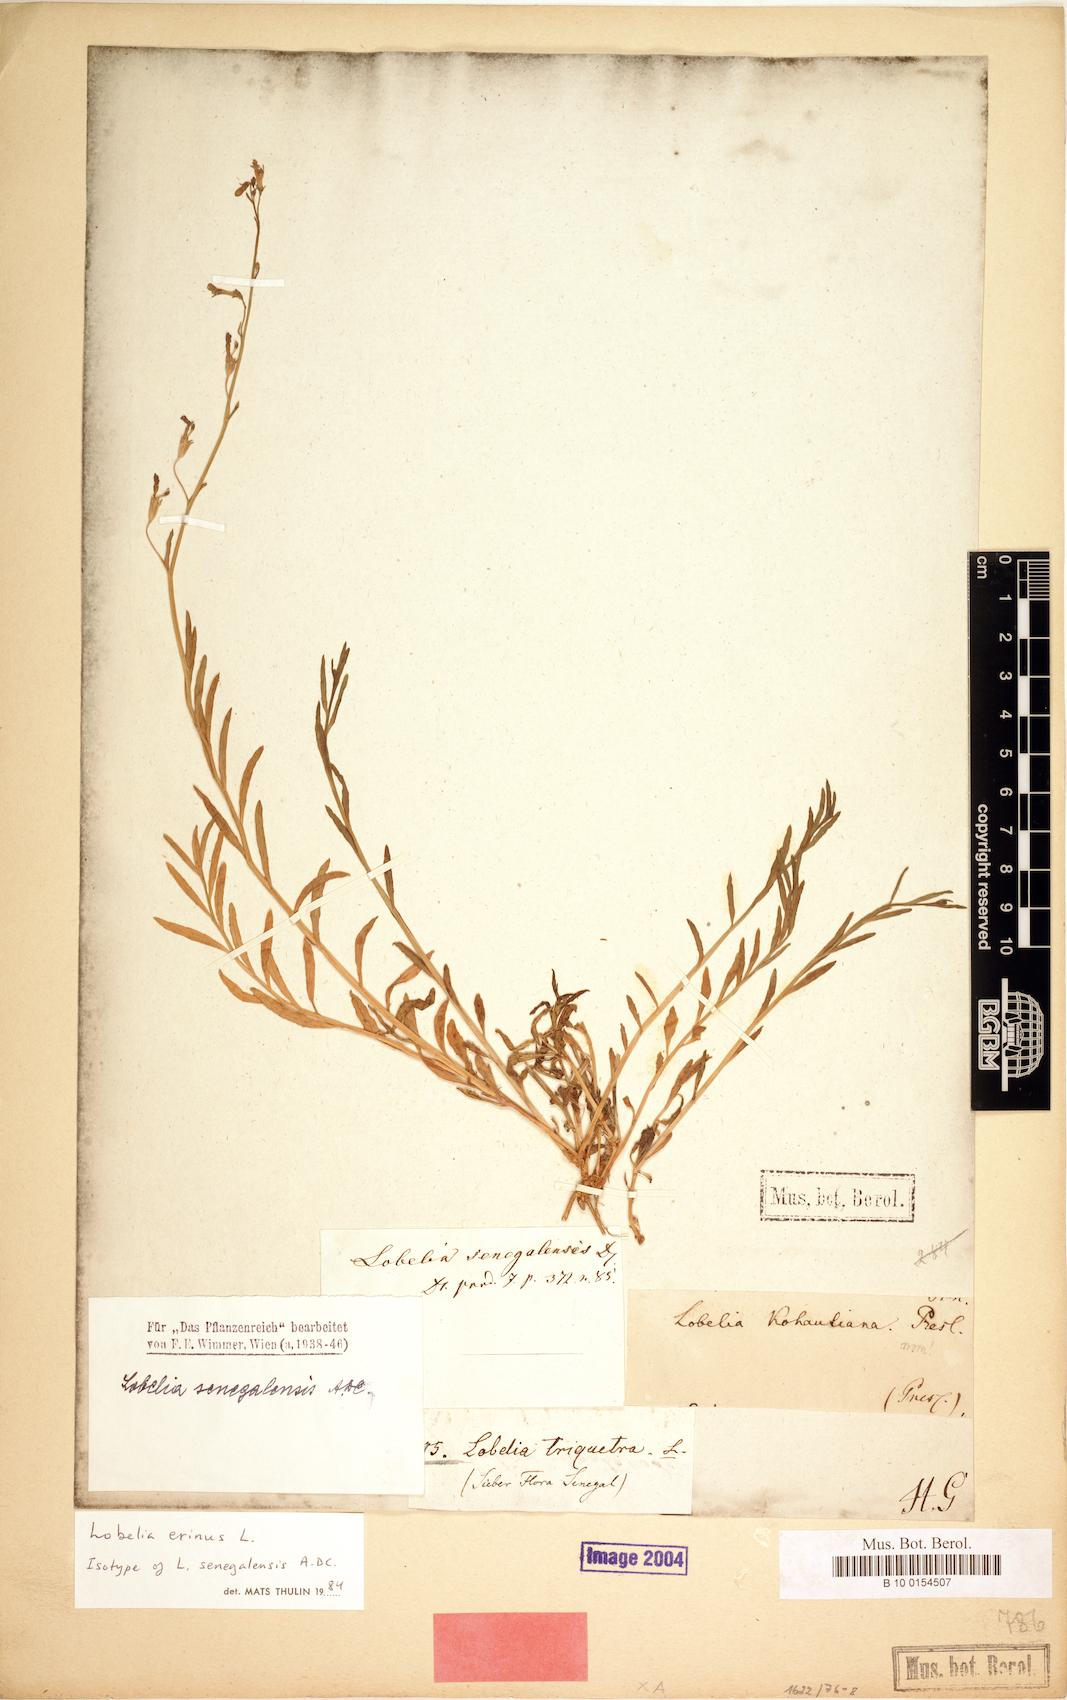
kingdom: Plantae
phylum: Tracheophyta
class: Magnoliopsida
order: Asterales
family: Campanulaceae
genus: Lobelia
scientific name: Lobelia erinus
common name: Edging lobelia
